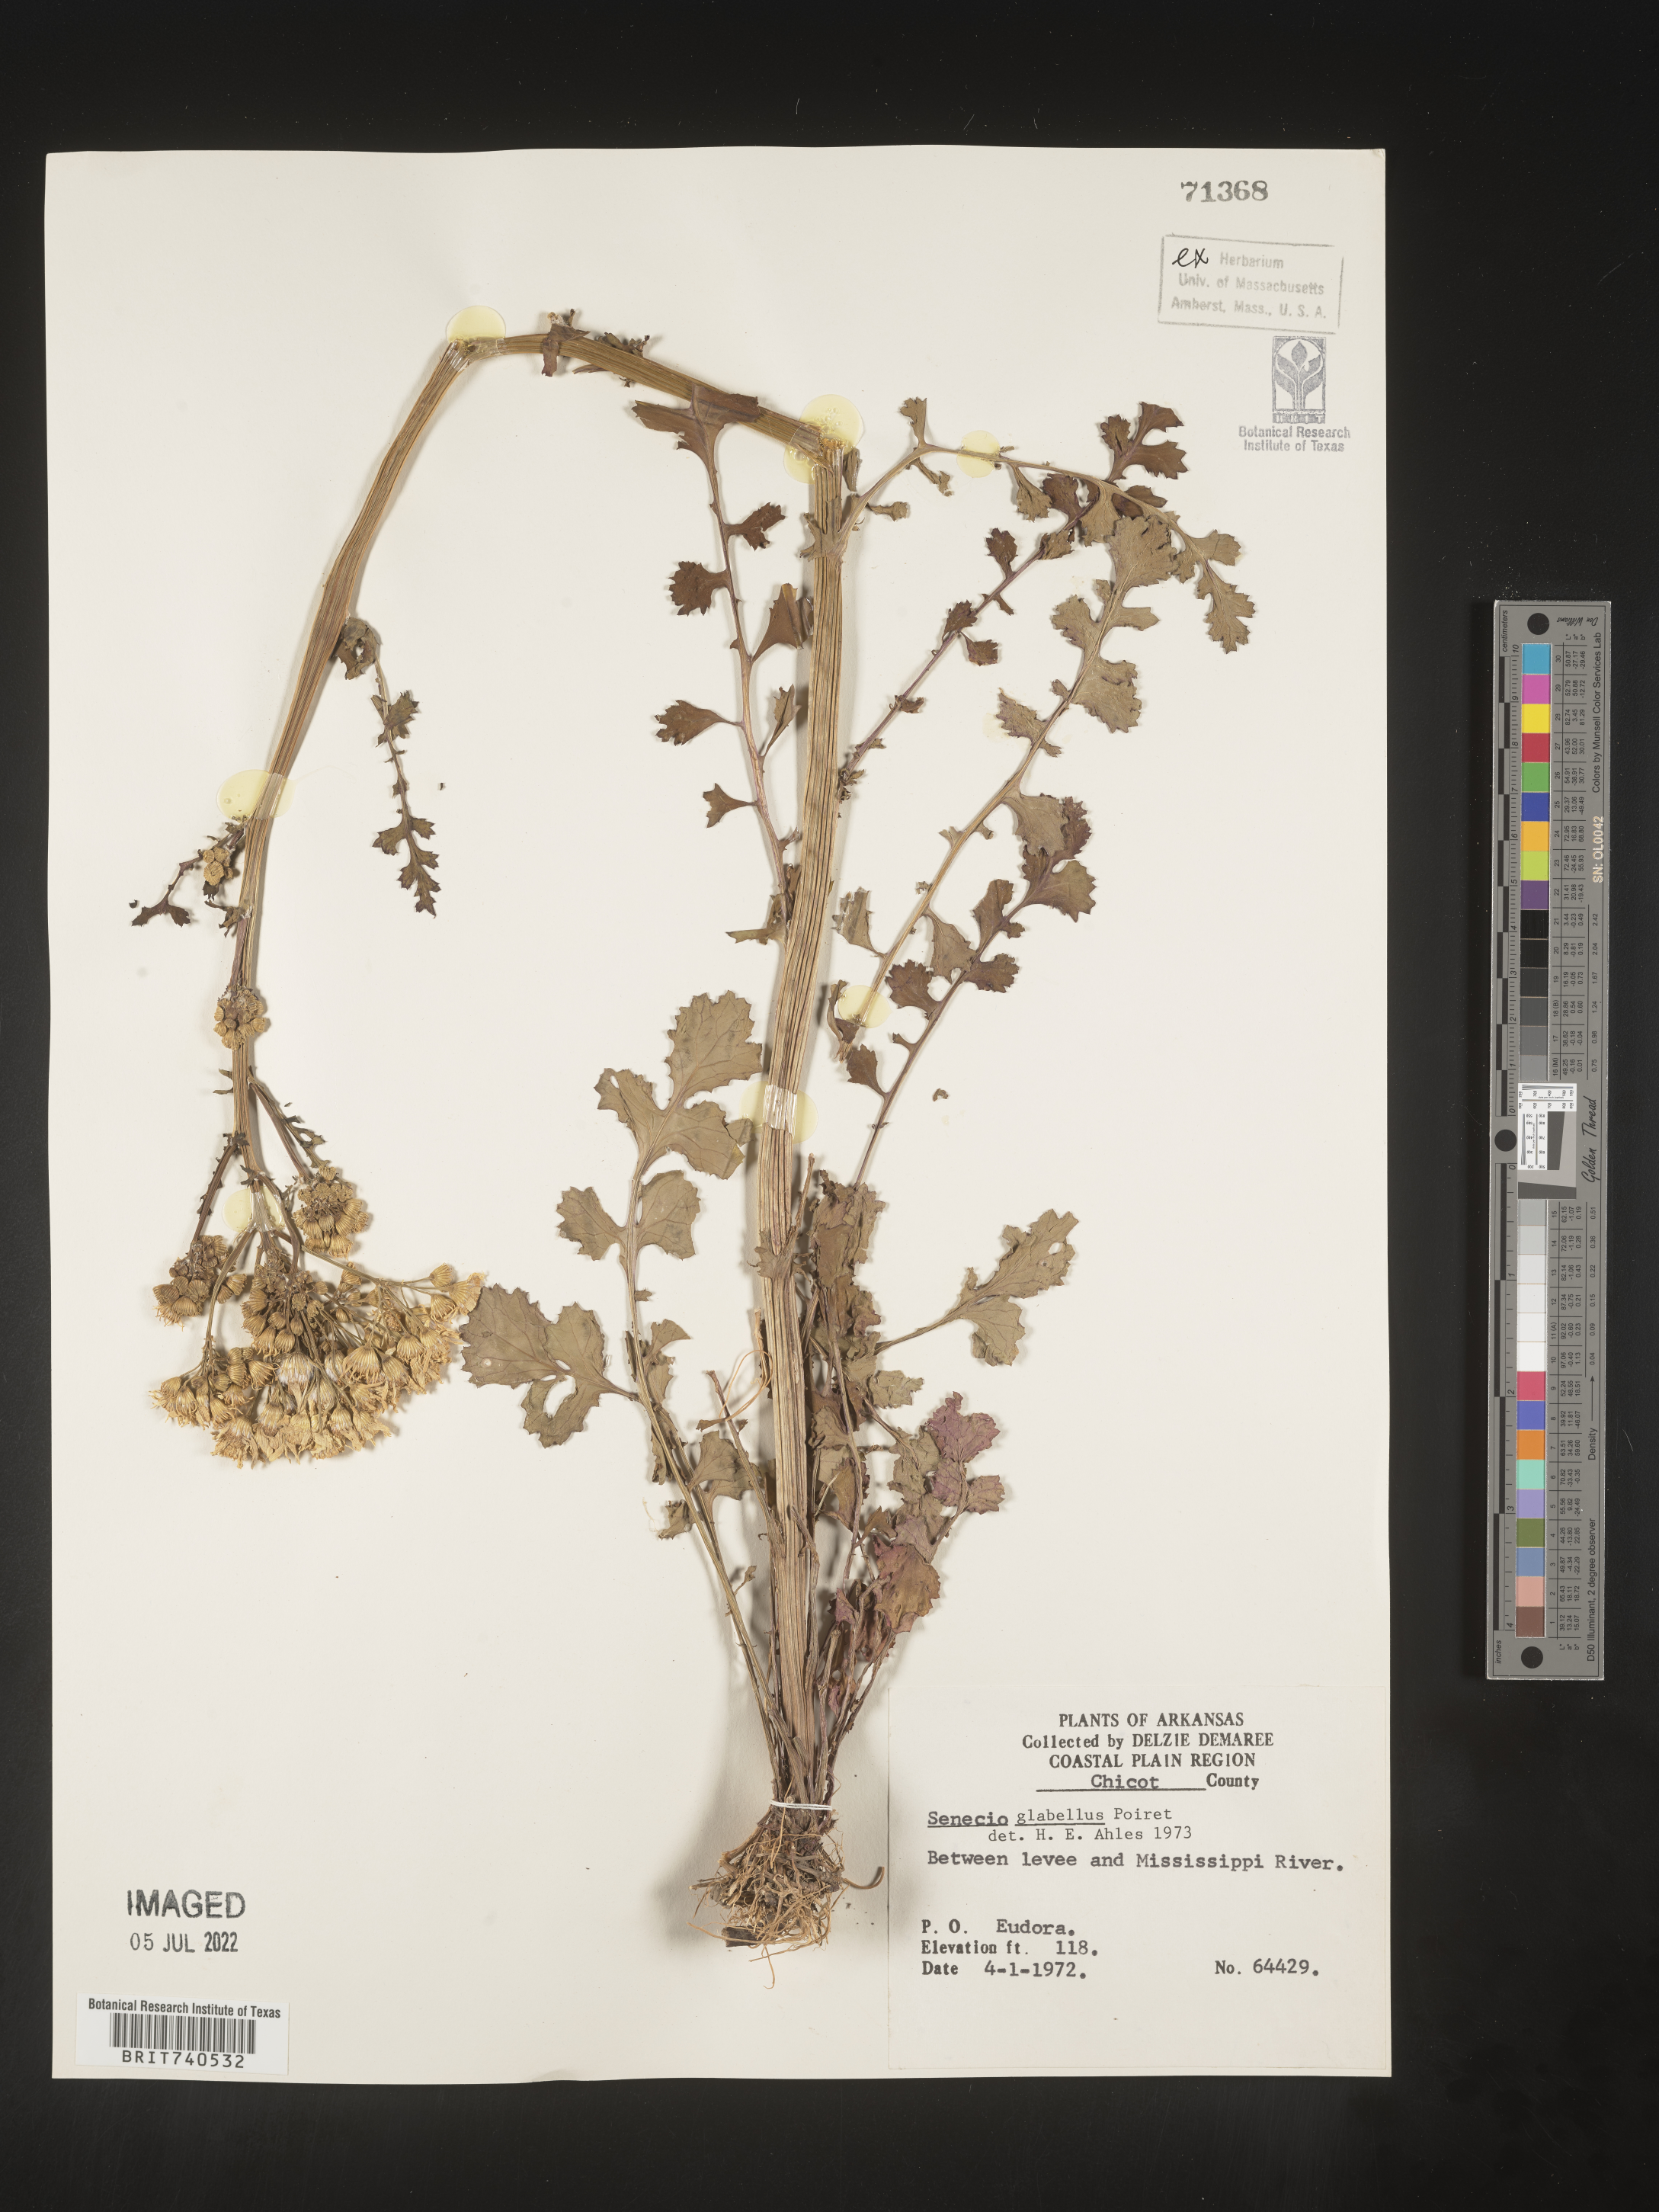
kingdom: Plantae
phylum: Tracheophyta
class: Magnoliopsida
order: Asterales
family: Asteraceae
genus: Tephroseris
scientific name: Tephroseris praticola
